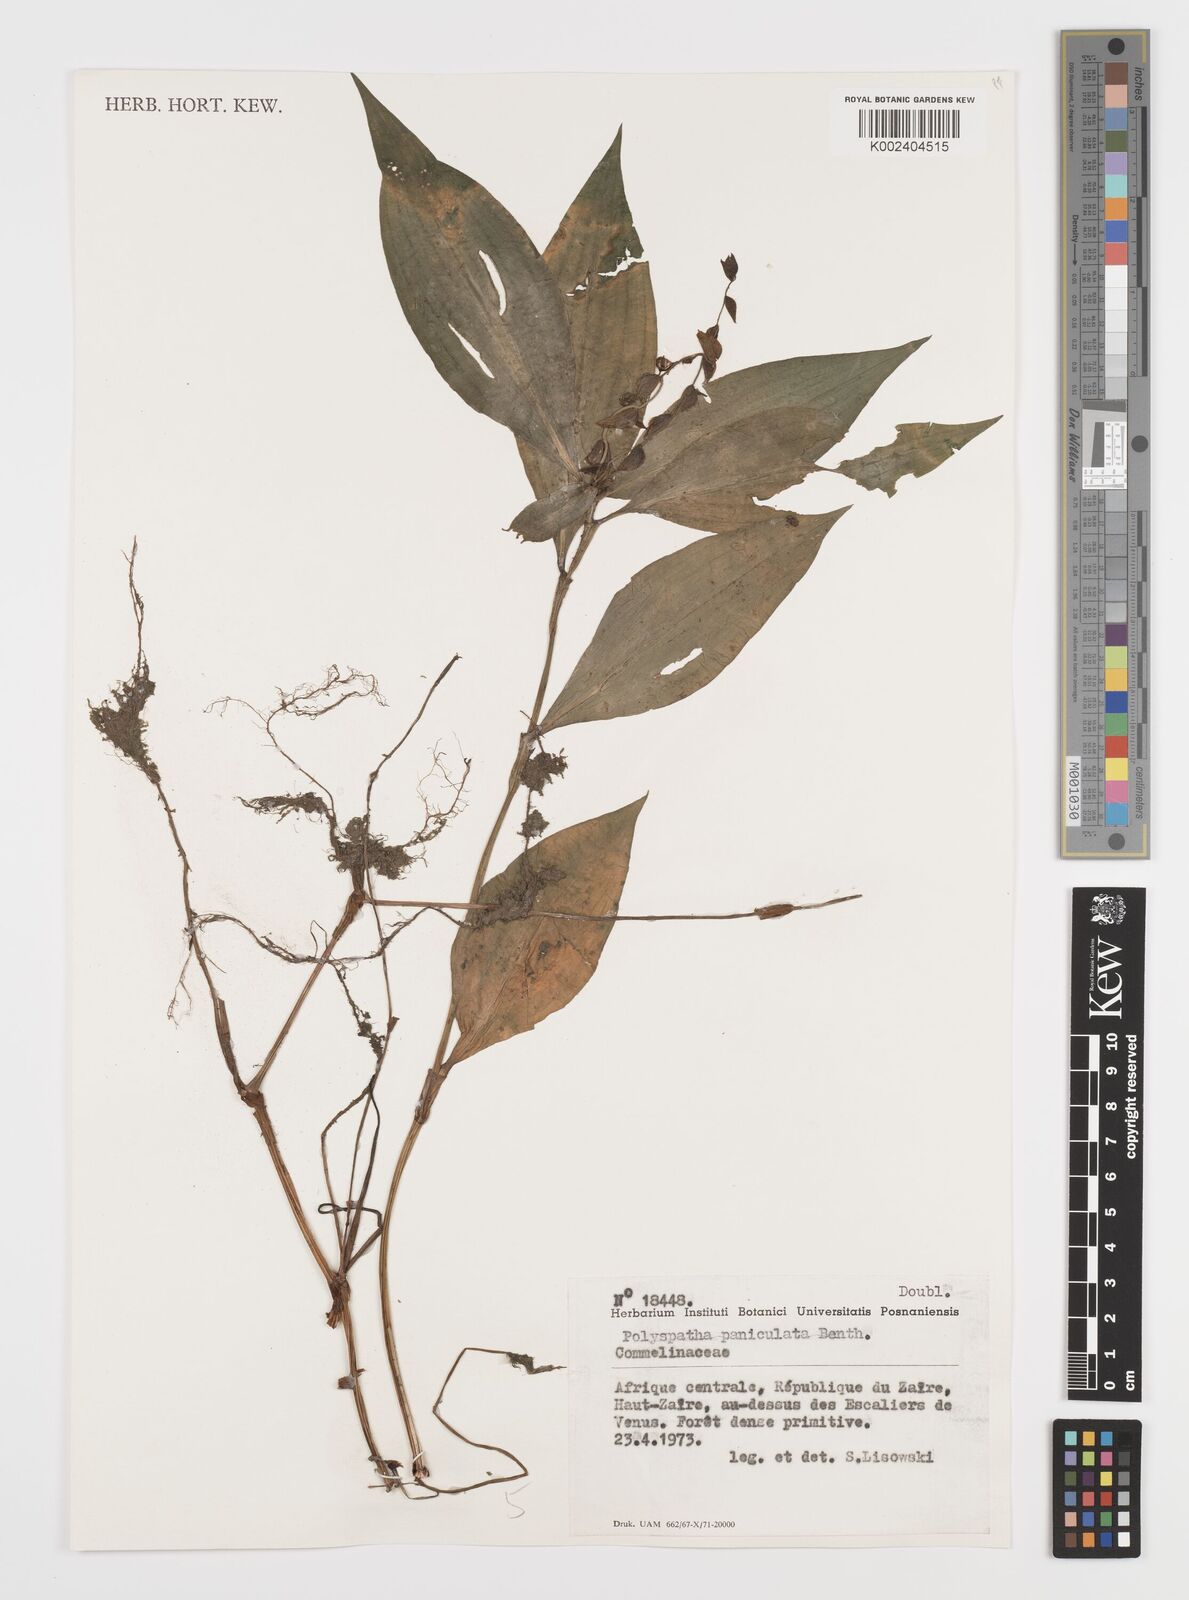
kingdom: Plantae
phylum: Tracheophyta
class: Liliopsida
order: Commelinales
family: Commelinaceae
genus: Polyspatha
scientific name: Polyspatha paniculata
